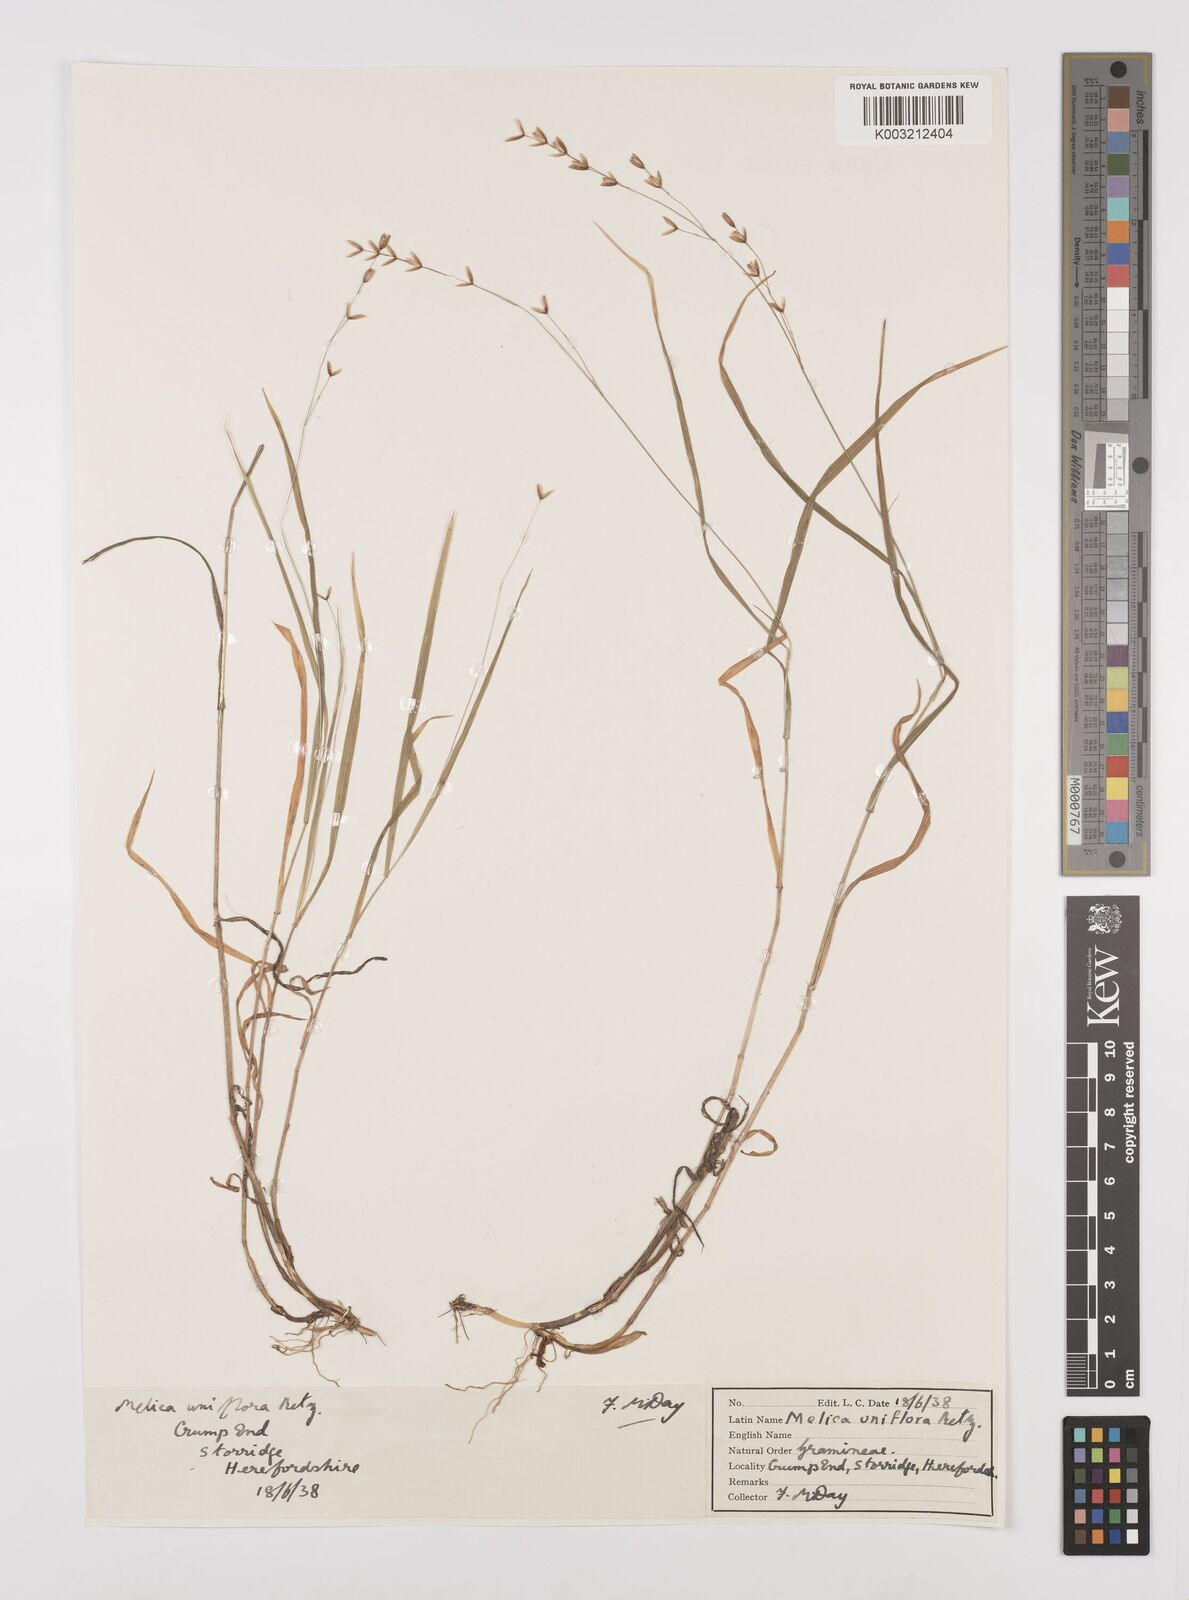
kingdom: Plantae
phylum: Tracheophyta
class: Liliopsida
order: Poales
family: Poaceae
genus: Melica
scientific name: Melica uniflora
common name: Wood melick
